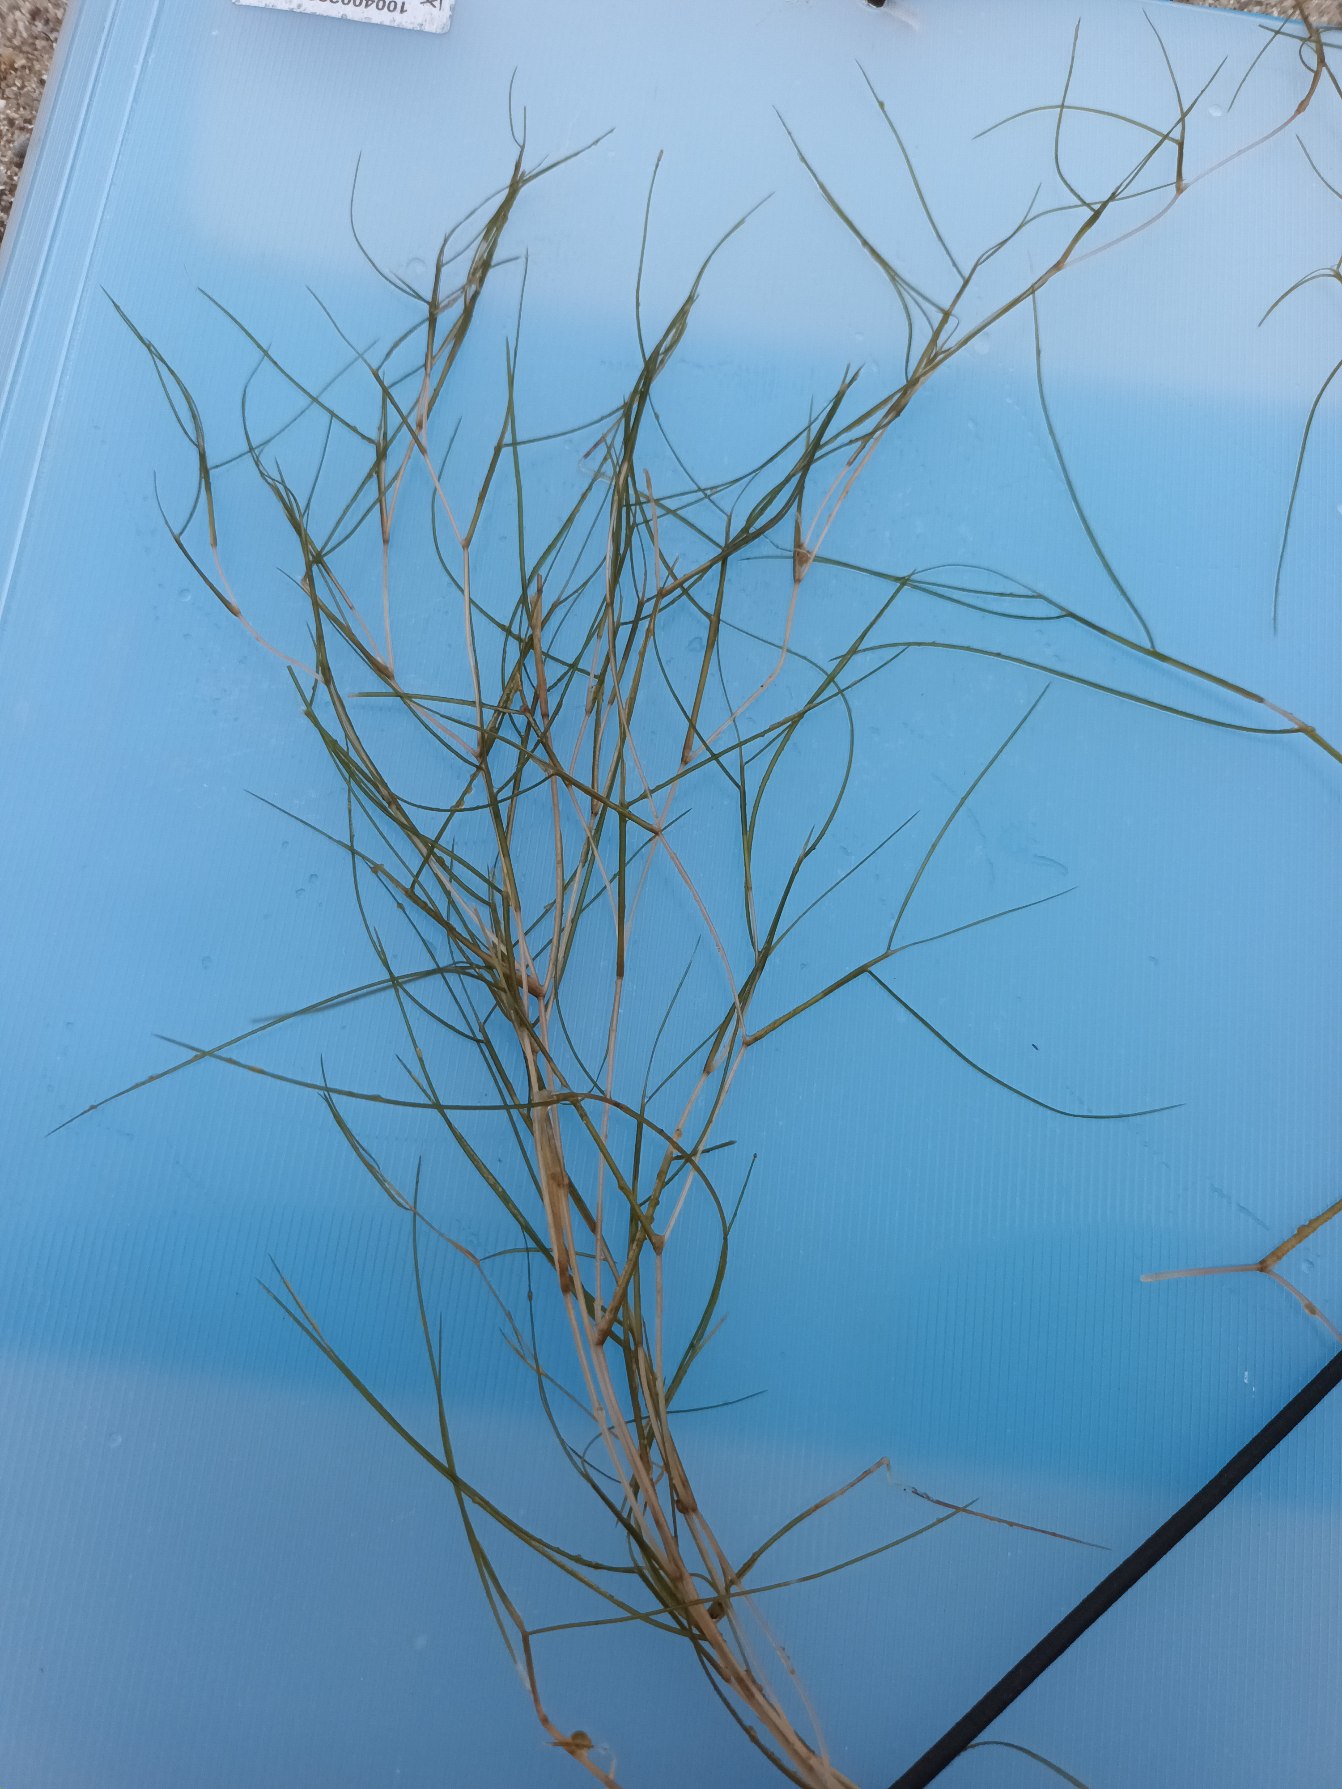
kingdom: Plantae
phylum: Tracheophyta
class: Liliopsida
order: Alismatales
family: Potamogetonaceae
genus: Stuckenia
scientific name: Stuckenia pectinata
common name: Børstebladet vandaks
